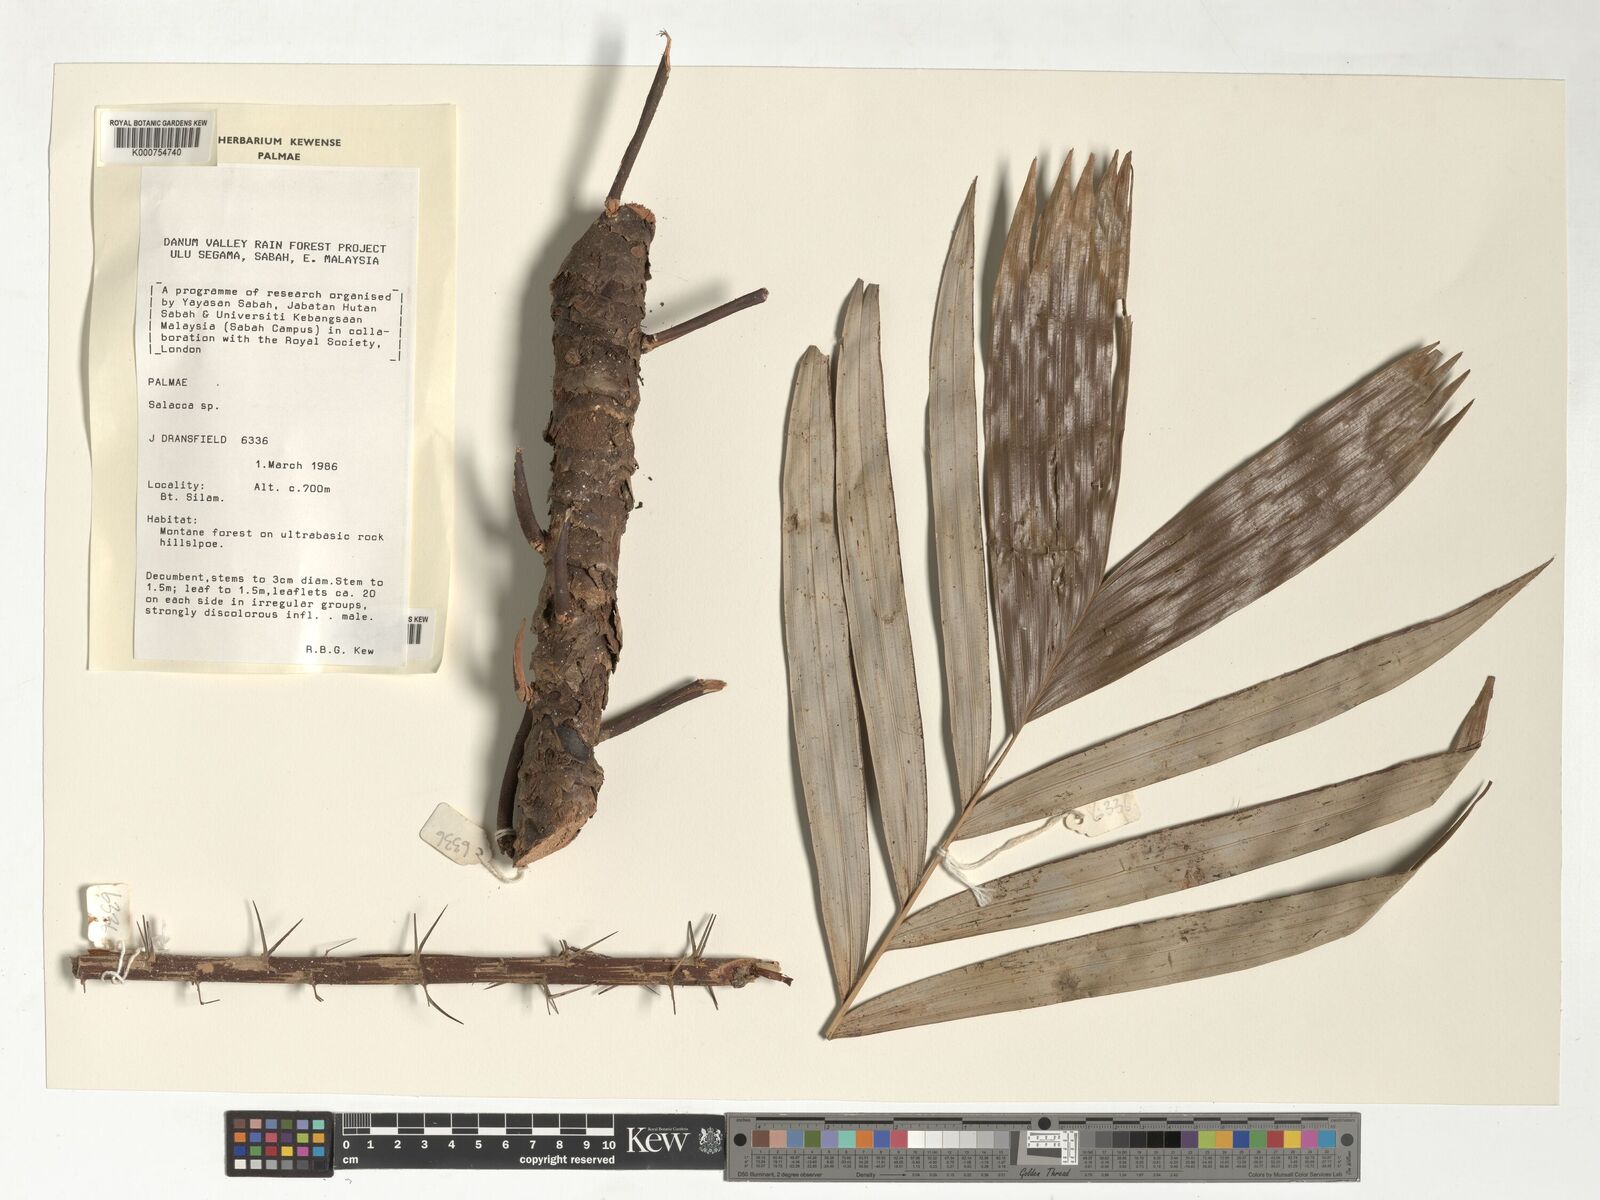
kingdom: Plantae
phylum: Tracheophyta
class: Liliopsida
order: Arecales
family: Arecaceae
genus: Salacca
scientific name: Salacca
